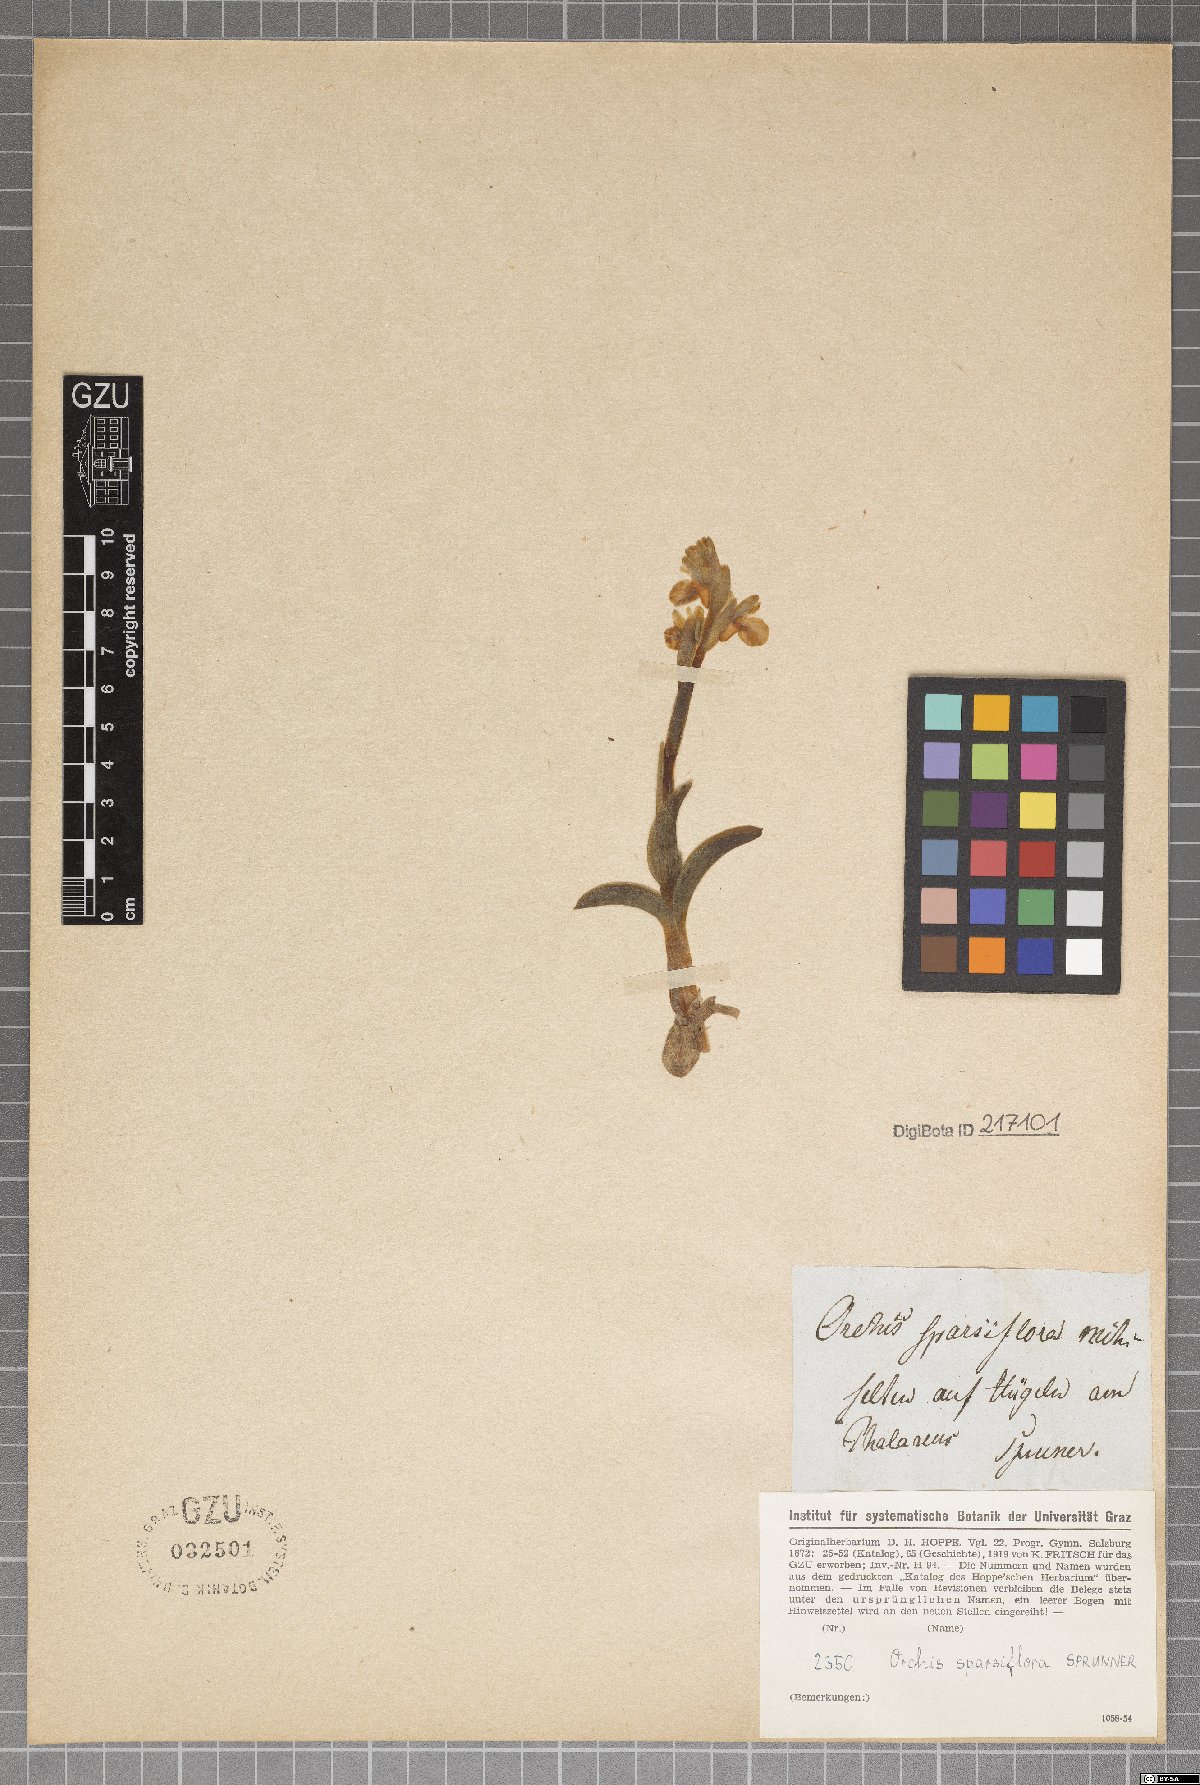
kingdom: Plantae
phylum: Tracheophyta
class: Liliopsida
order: Asparagales
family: Orchidaceae
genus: Anacamptis
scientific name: Anacamptis collina
